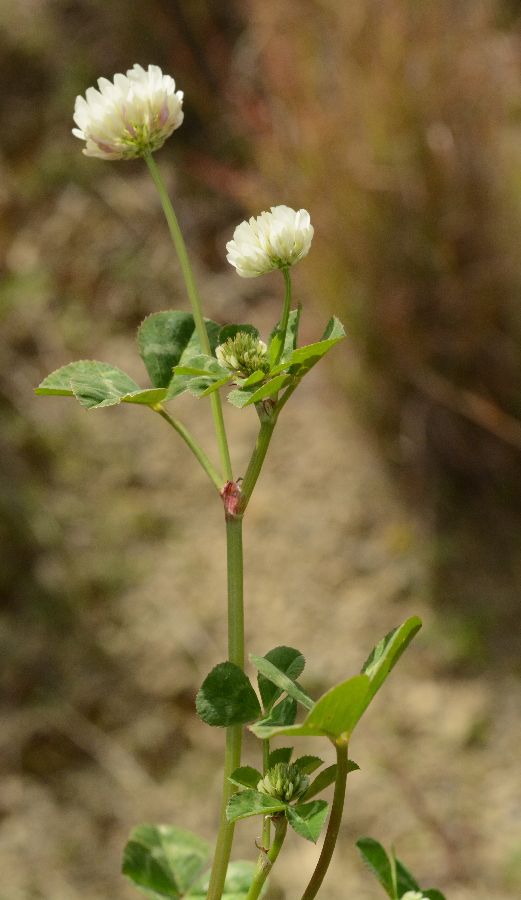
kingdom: Plantae
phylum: Tracheophyta
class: Magnoliopsida
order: Fabales
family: Fabaceae
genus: Trifolium
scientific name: Trifolium nigrescens
